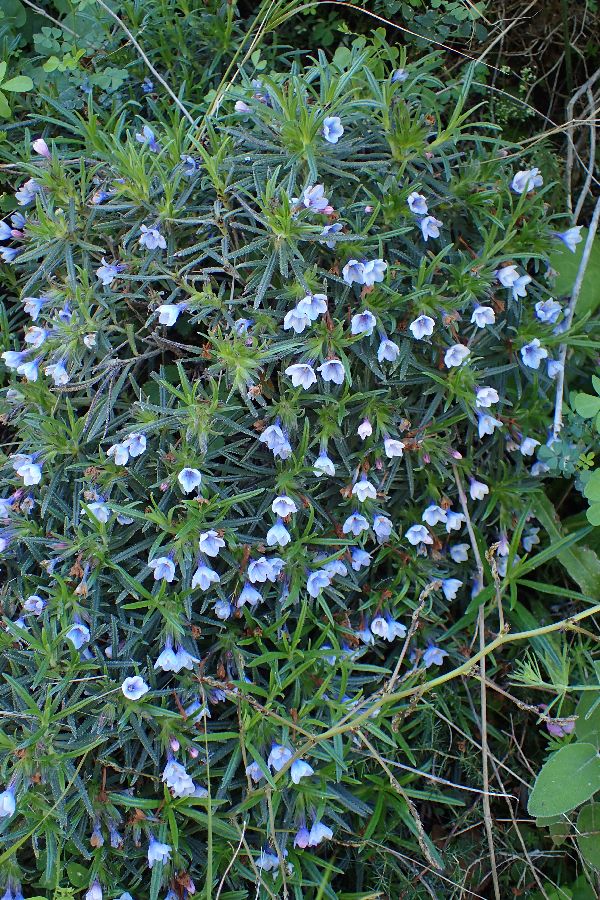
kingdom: Plantae
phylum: Tracheophyta
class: Magnoliopsida
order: Boraginales
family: Boraginaceae
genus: Lithodora
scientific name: Lithodora zahnii
